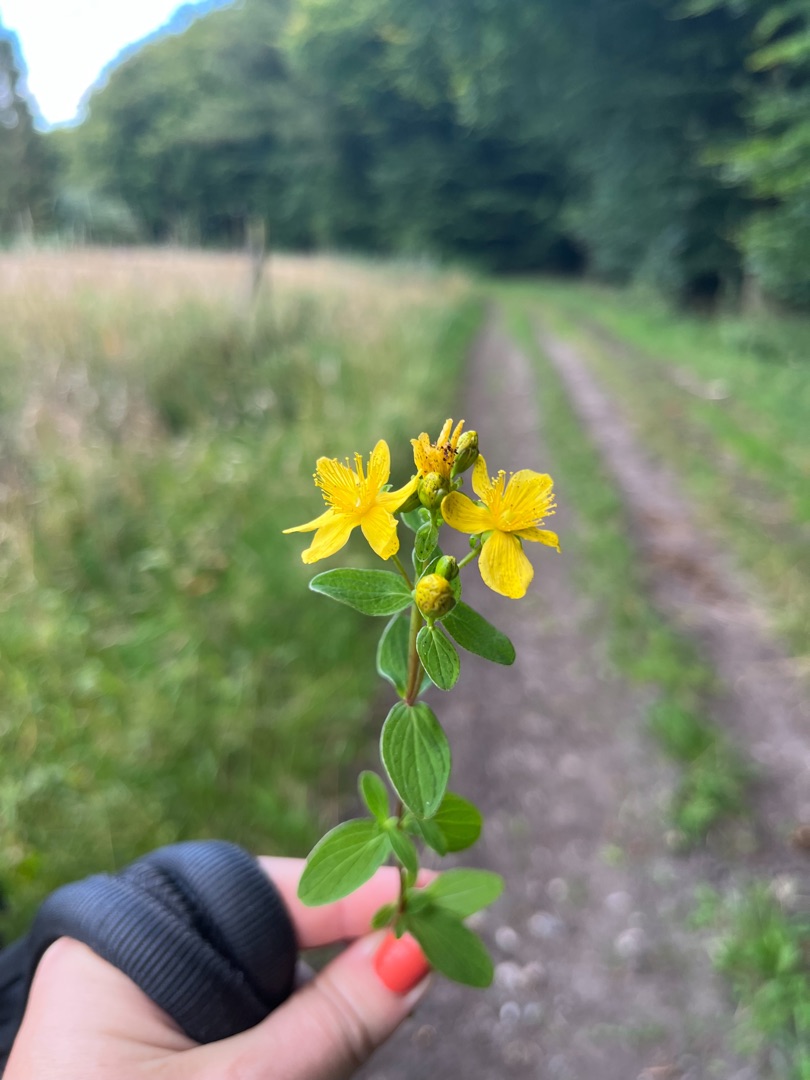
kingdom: Plantae
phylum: Tracheophyta
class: Magnoliopsida
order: Malpighiales
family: Hypericaceae
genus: Hypericum
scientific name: Hypericum maculatum
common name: Kantet perikon
